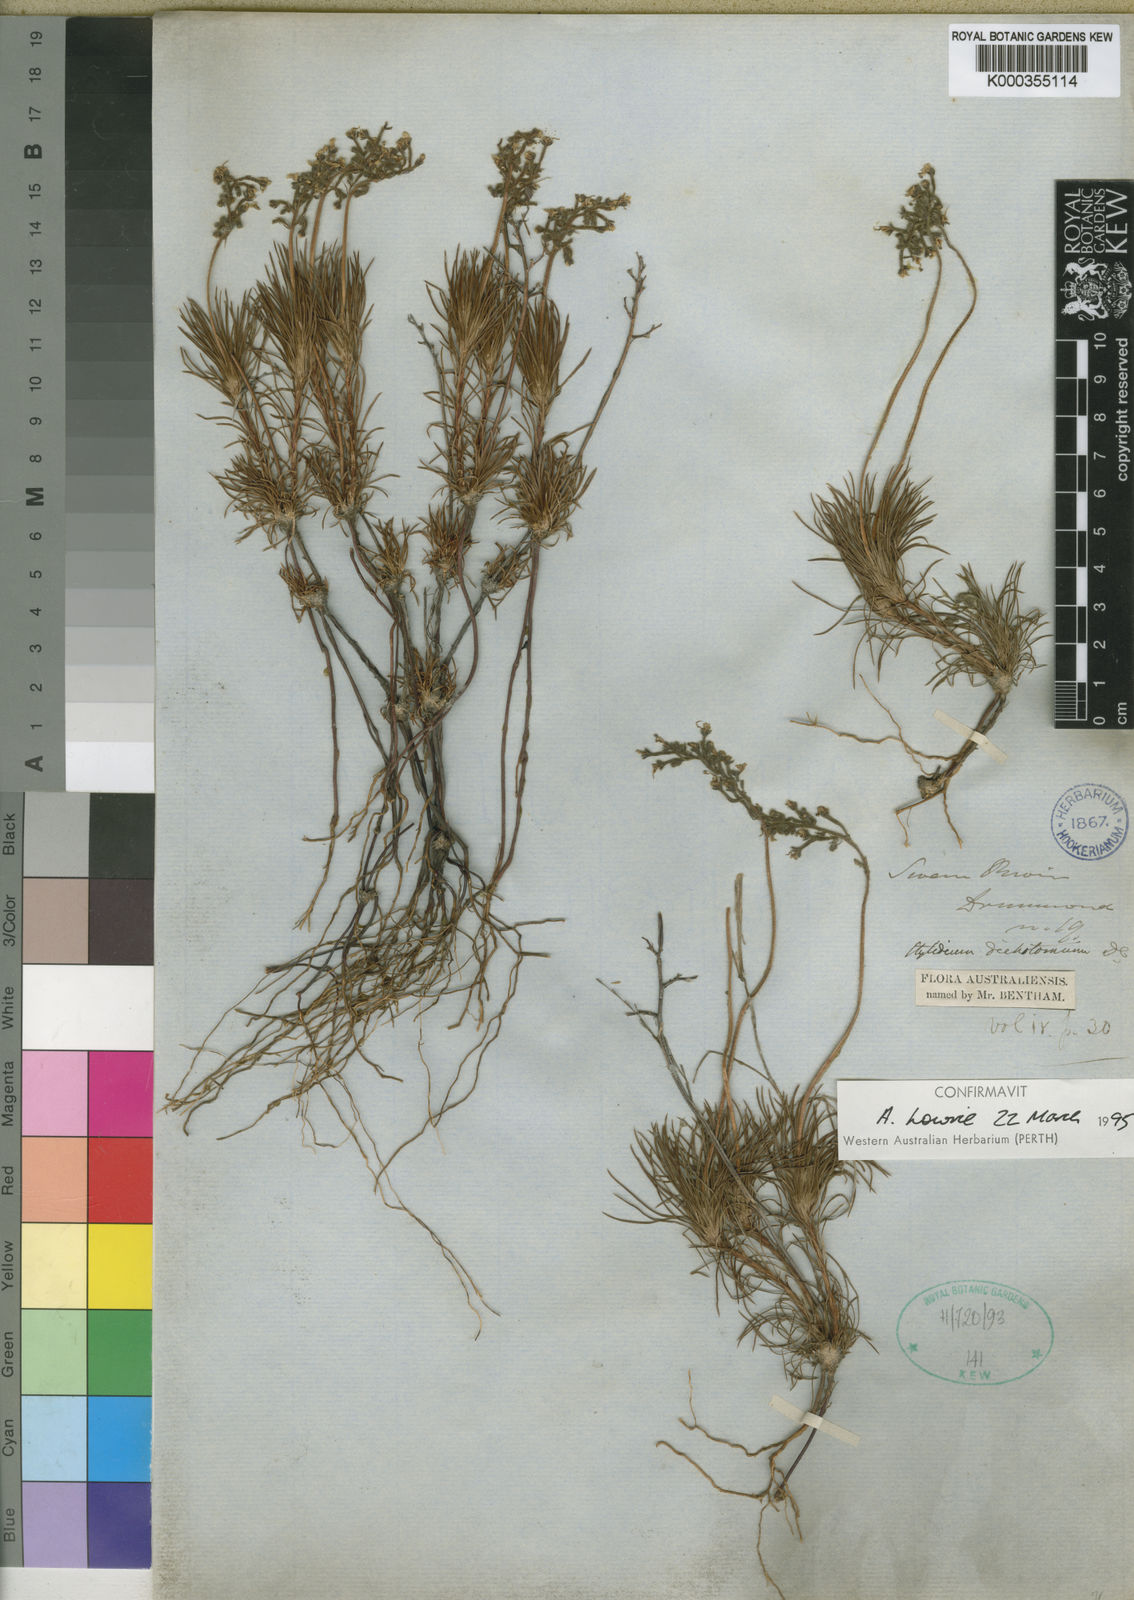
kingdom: Plantae
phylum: Tracheophyta
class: Magnoliopsida
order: Asterales
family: Stylidiaceae
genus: Stylidium
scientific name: Stylidium dichotomum
